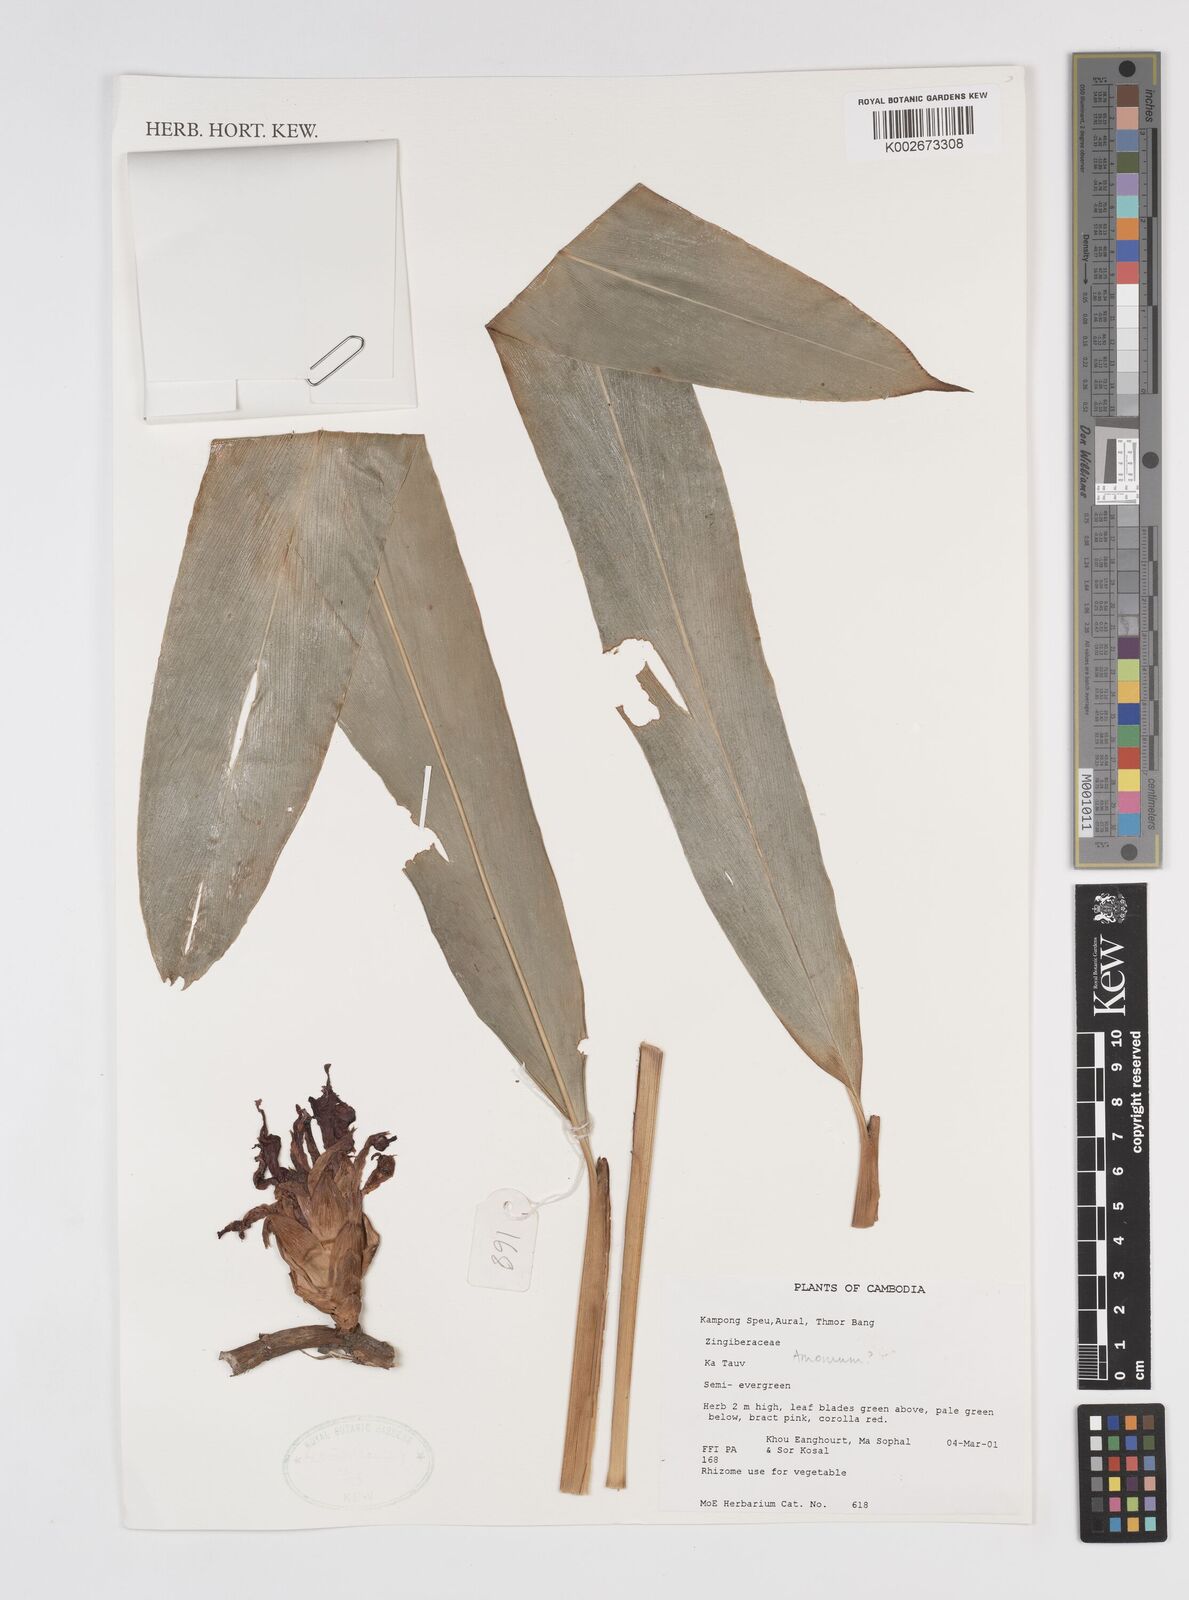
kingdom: Plantae
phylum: Tracheophyta
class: Liliopsida
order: Zingiberales
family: Zingiberaceae
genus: Amomum
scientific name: Amomum
